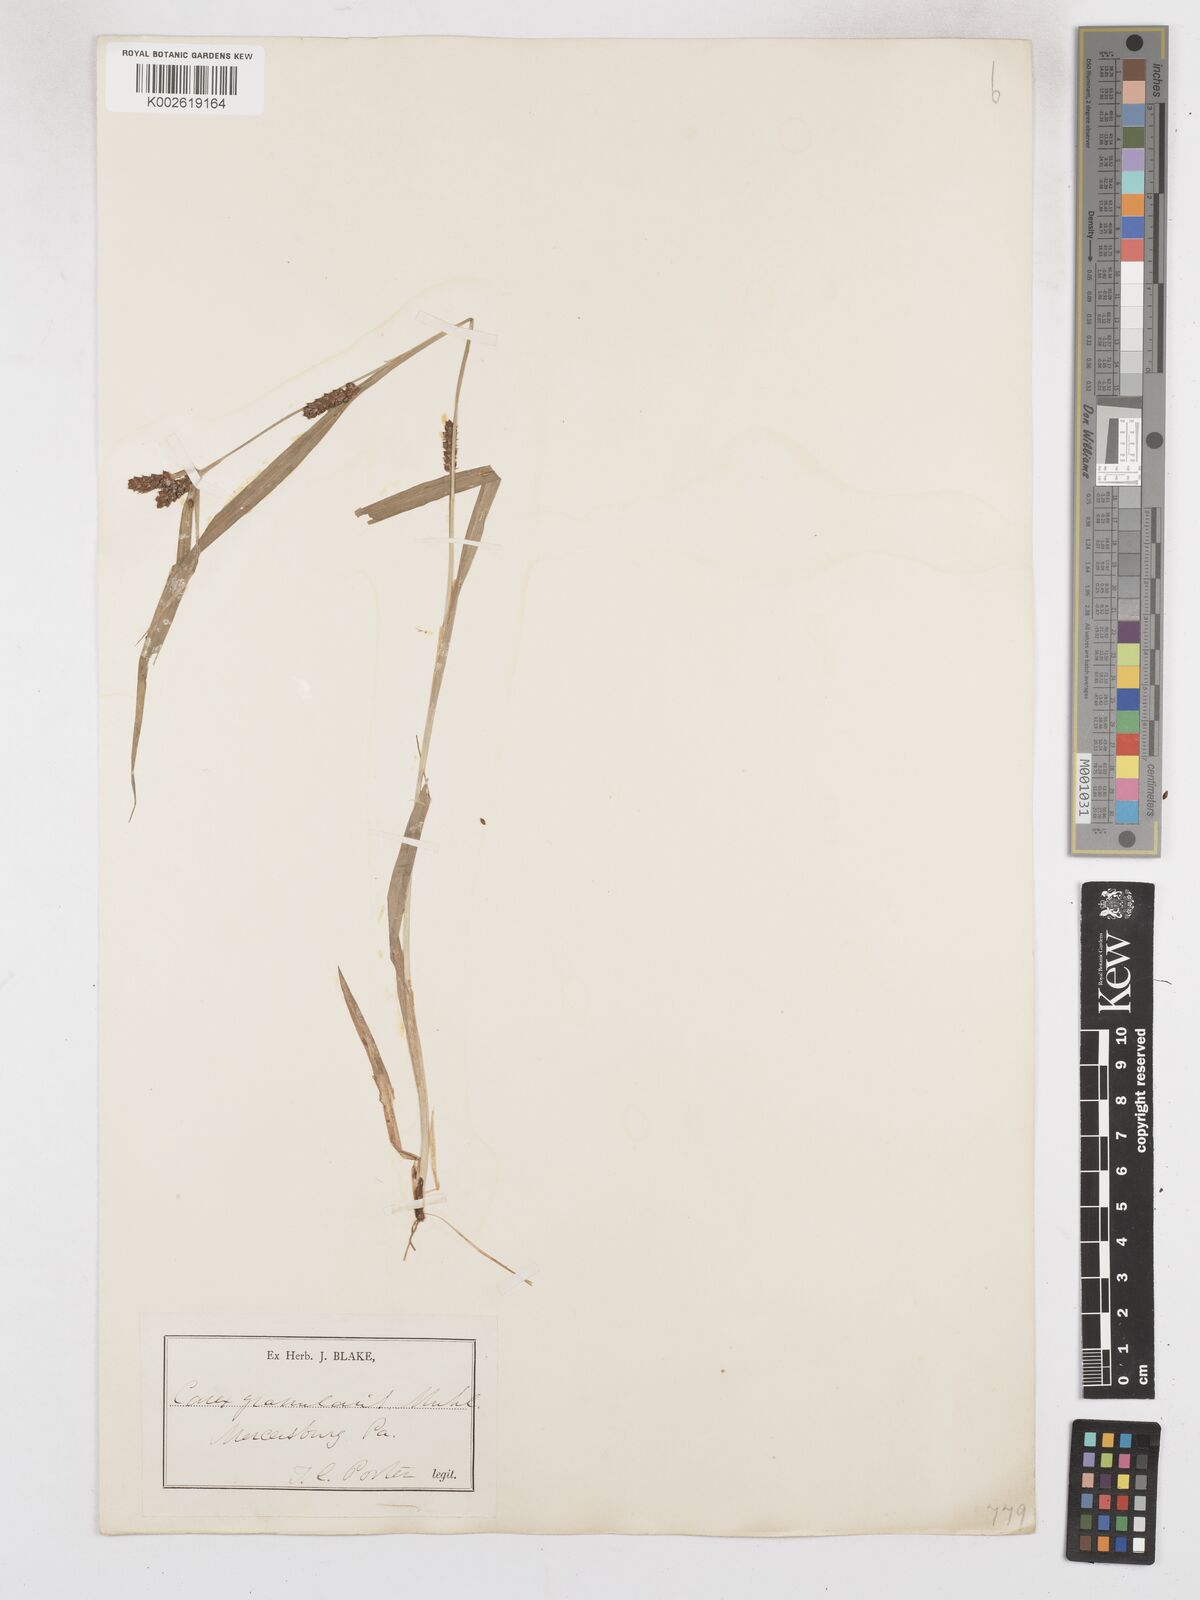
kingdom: Plantae
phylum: Tracheophyta
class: Liliopsida
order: Poales
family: Cyperaceae
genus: Carex
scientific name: Carex granularis
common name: Granular sedge
